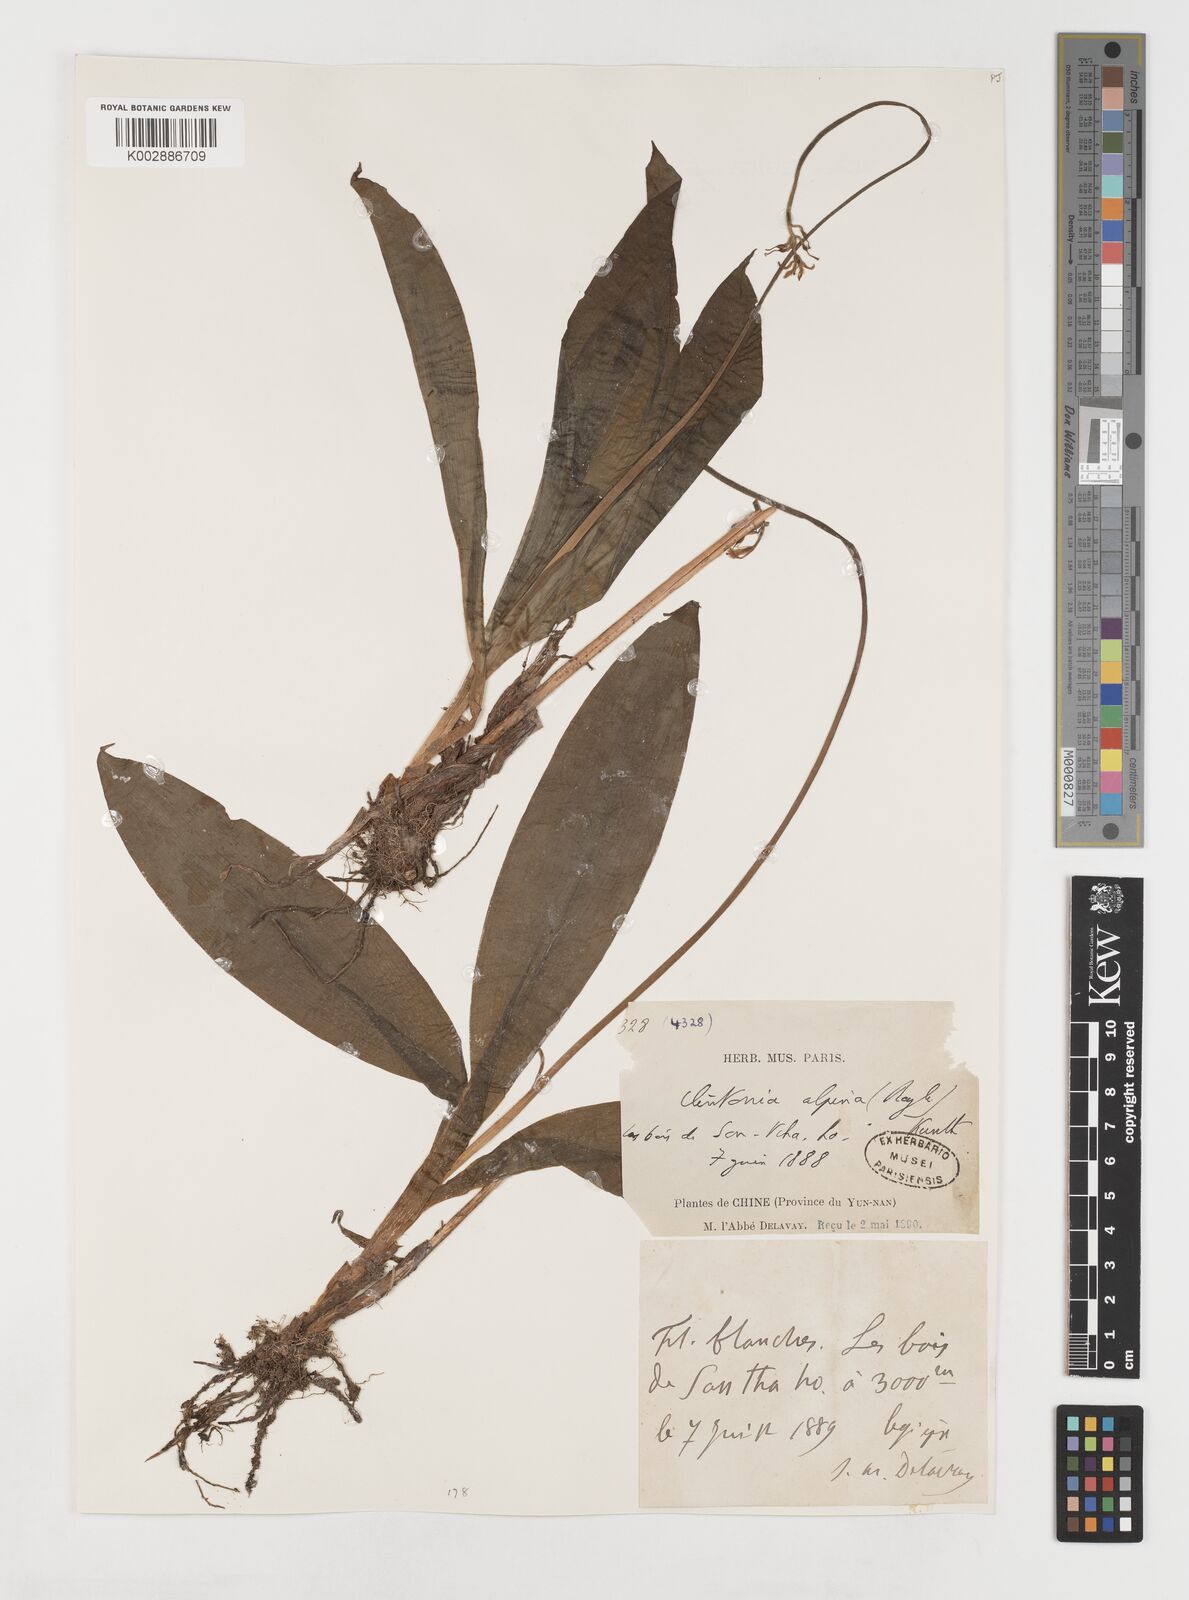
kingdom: Plantae
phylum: Tracheophyta
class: Liliopsida
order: Liliales
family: Liliaceae
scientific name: Liliaceae
